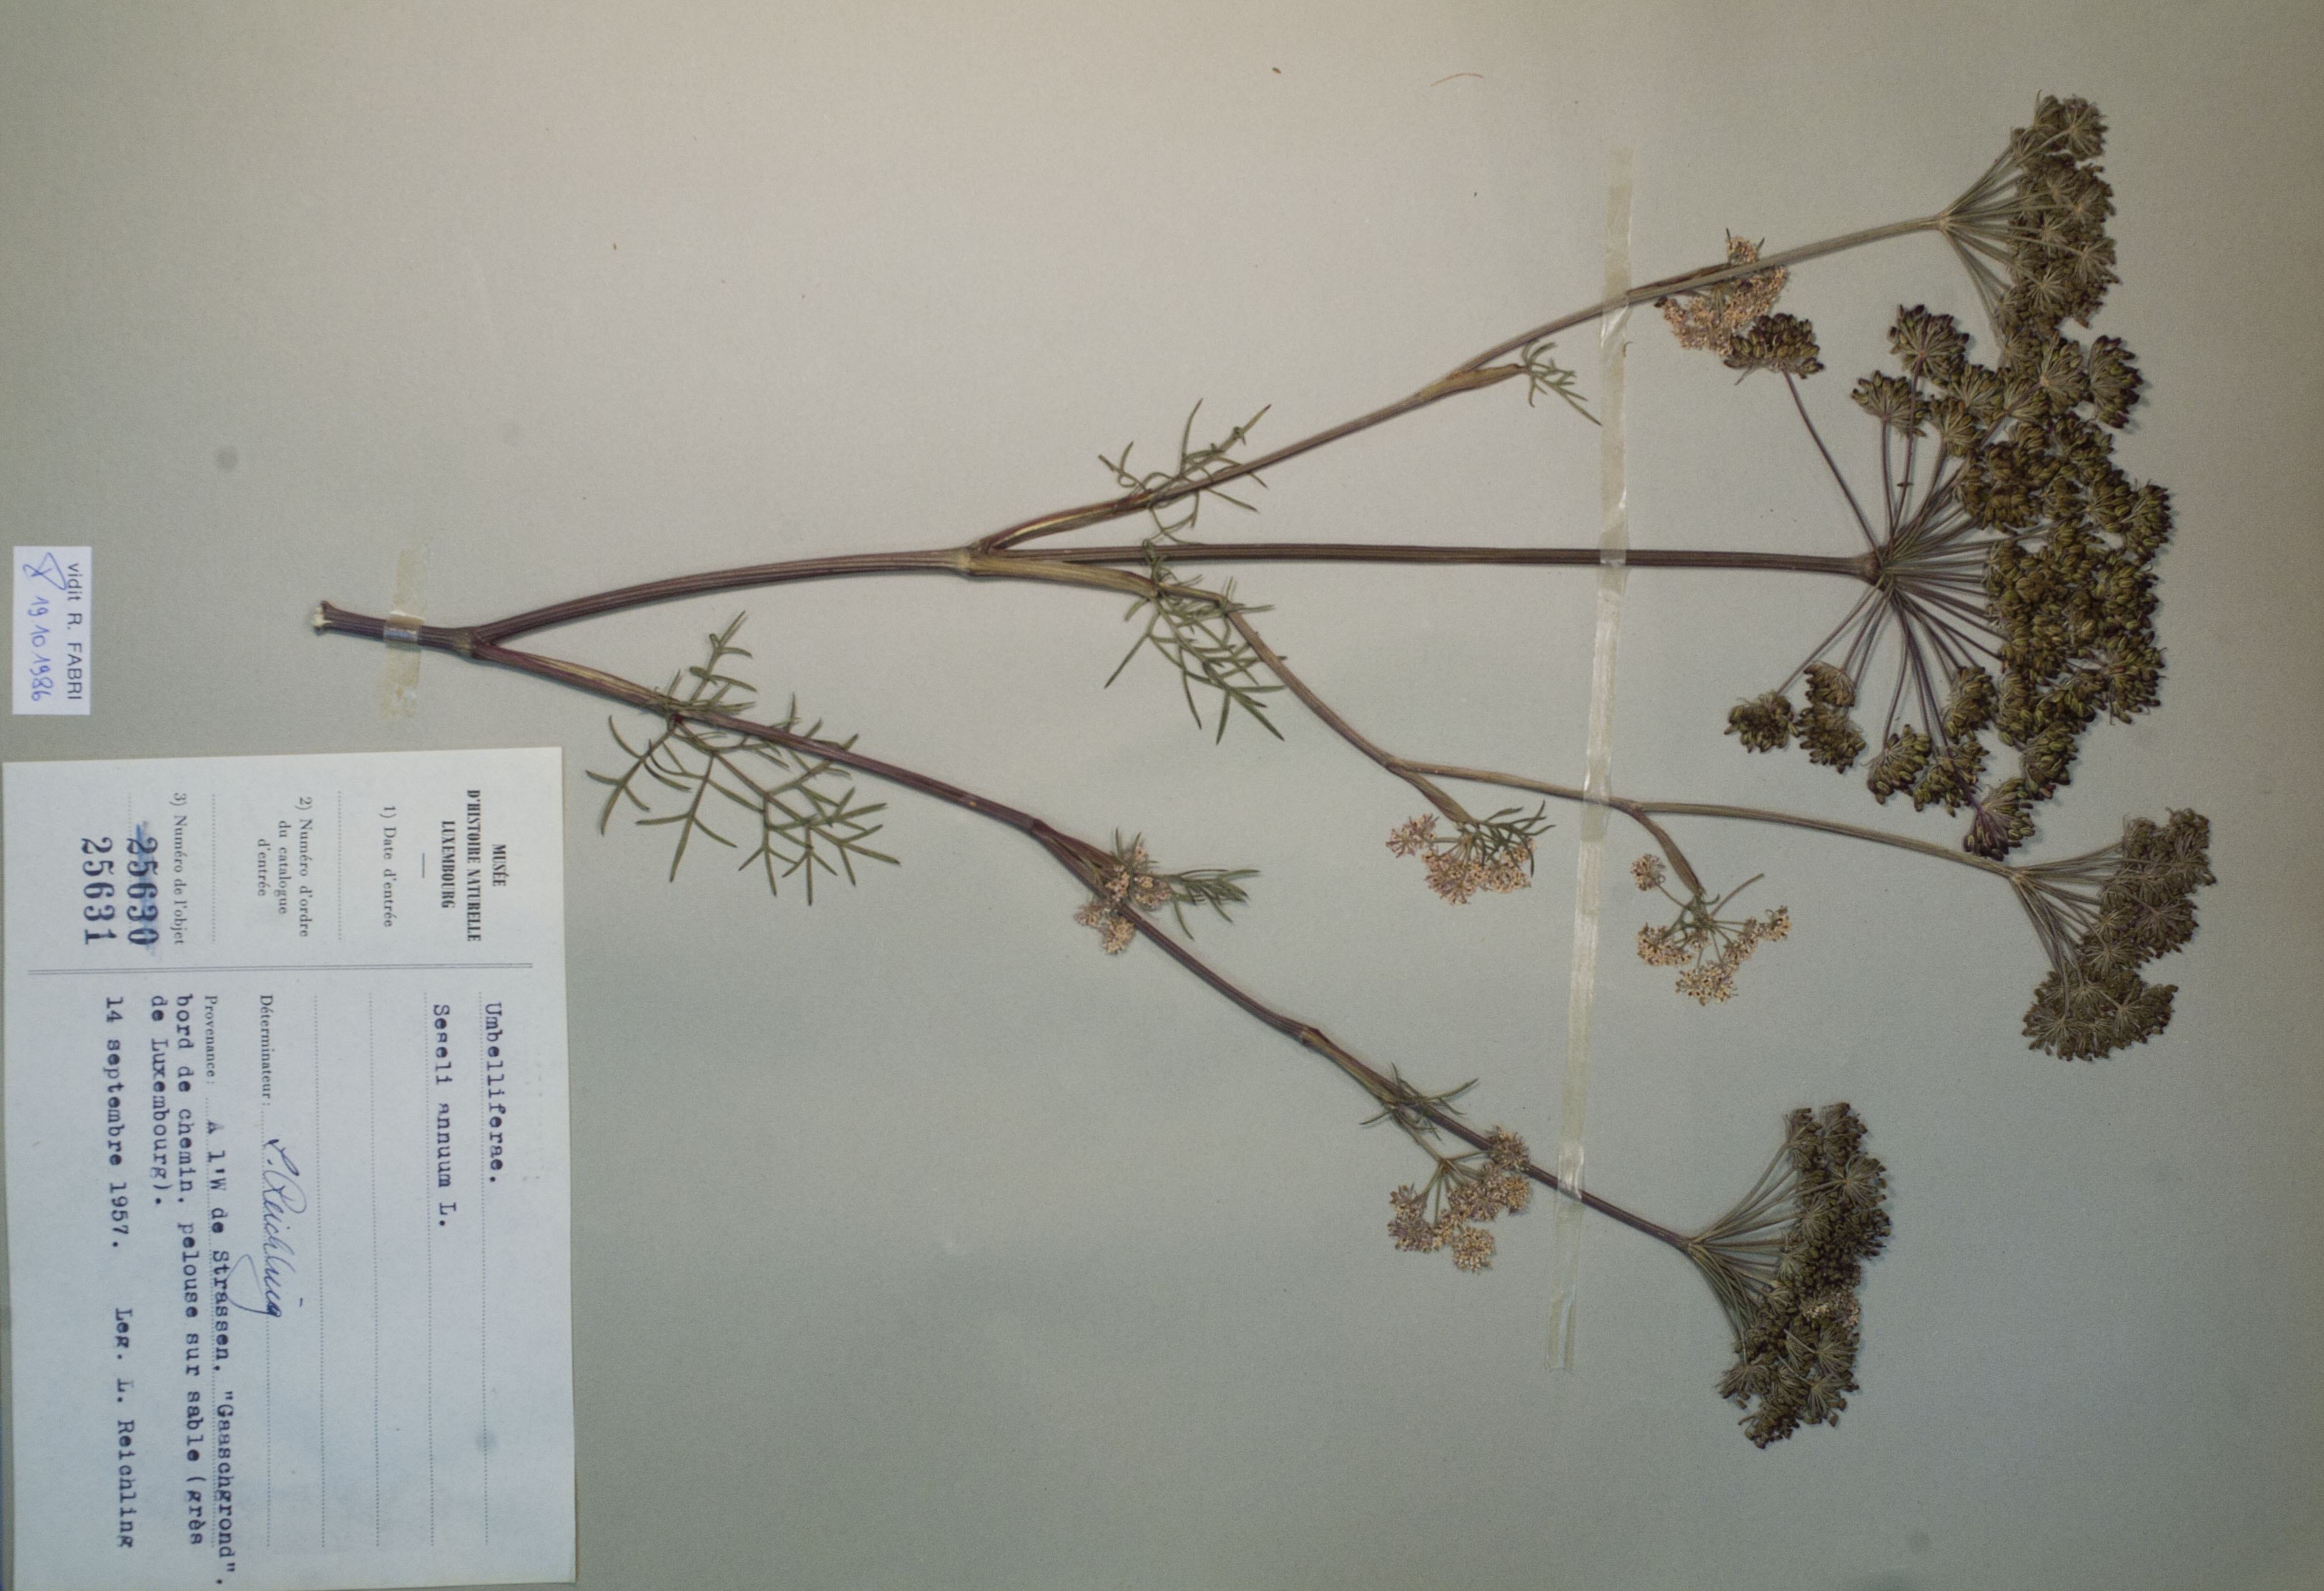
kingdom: Plantae
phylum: Tracheophyta
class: Magnoliopsida
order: Apiales
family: Apiaceae
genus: Seseli
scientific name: Seseli annuum
